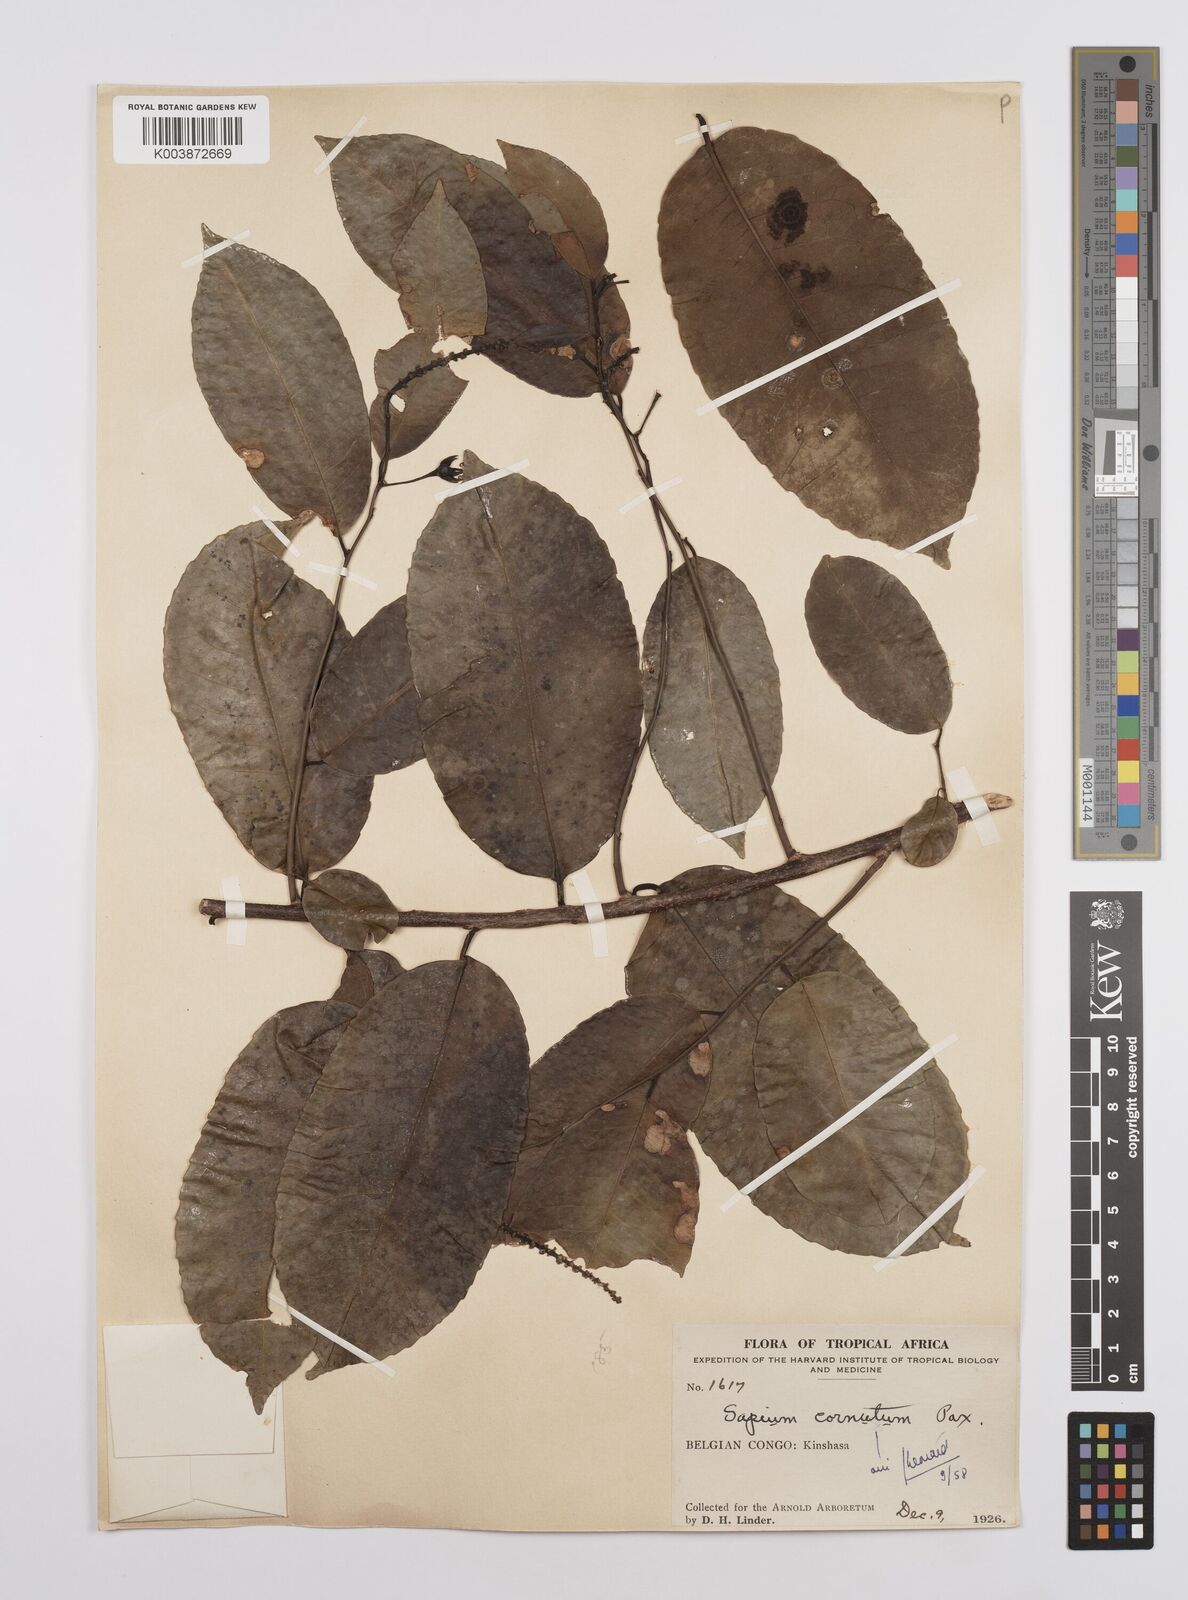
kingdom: Plantae
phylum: Tracheophyta
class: Magnoliopsida
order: Malpighiales
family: Euphorbiaceae
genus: Sclerocroton
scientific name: Sclerocroton cornutus
